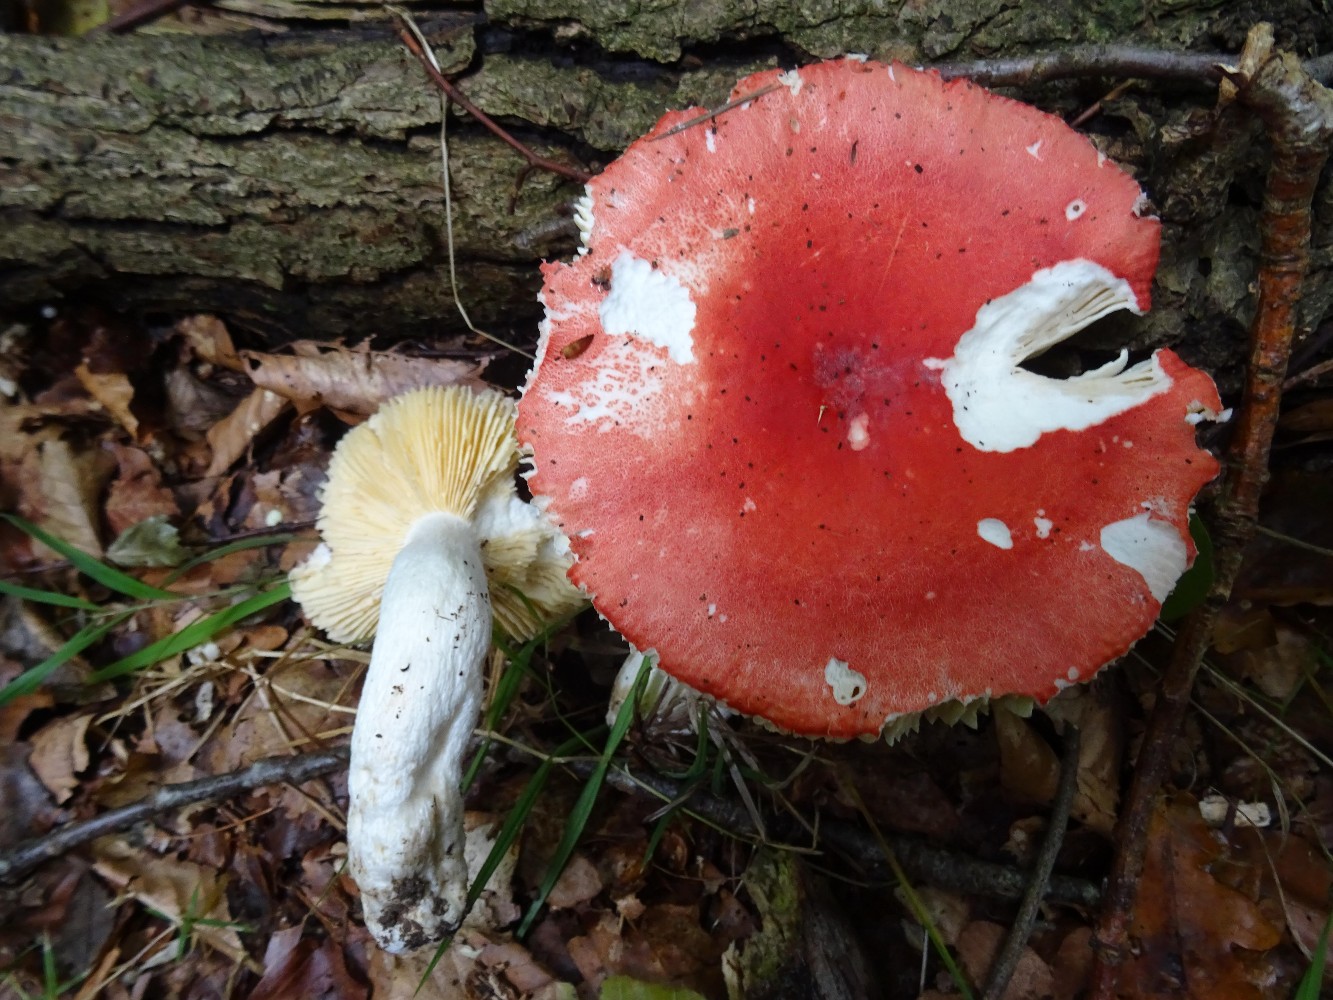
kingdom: Fungi
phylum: Basidiomycota
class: Agaricomycetes
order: Russulales
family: Russulaceae
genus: Russula
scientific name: Russula pseudointegra
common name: cinnoberrød skørhat
